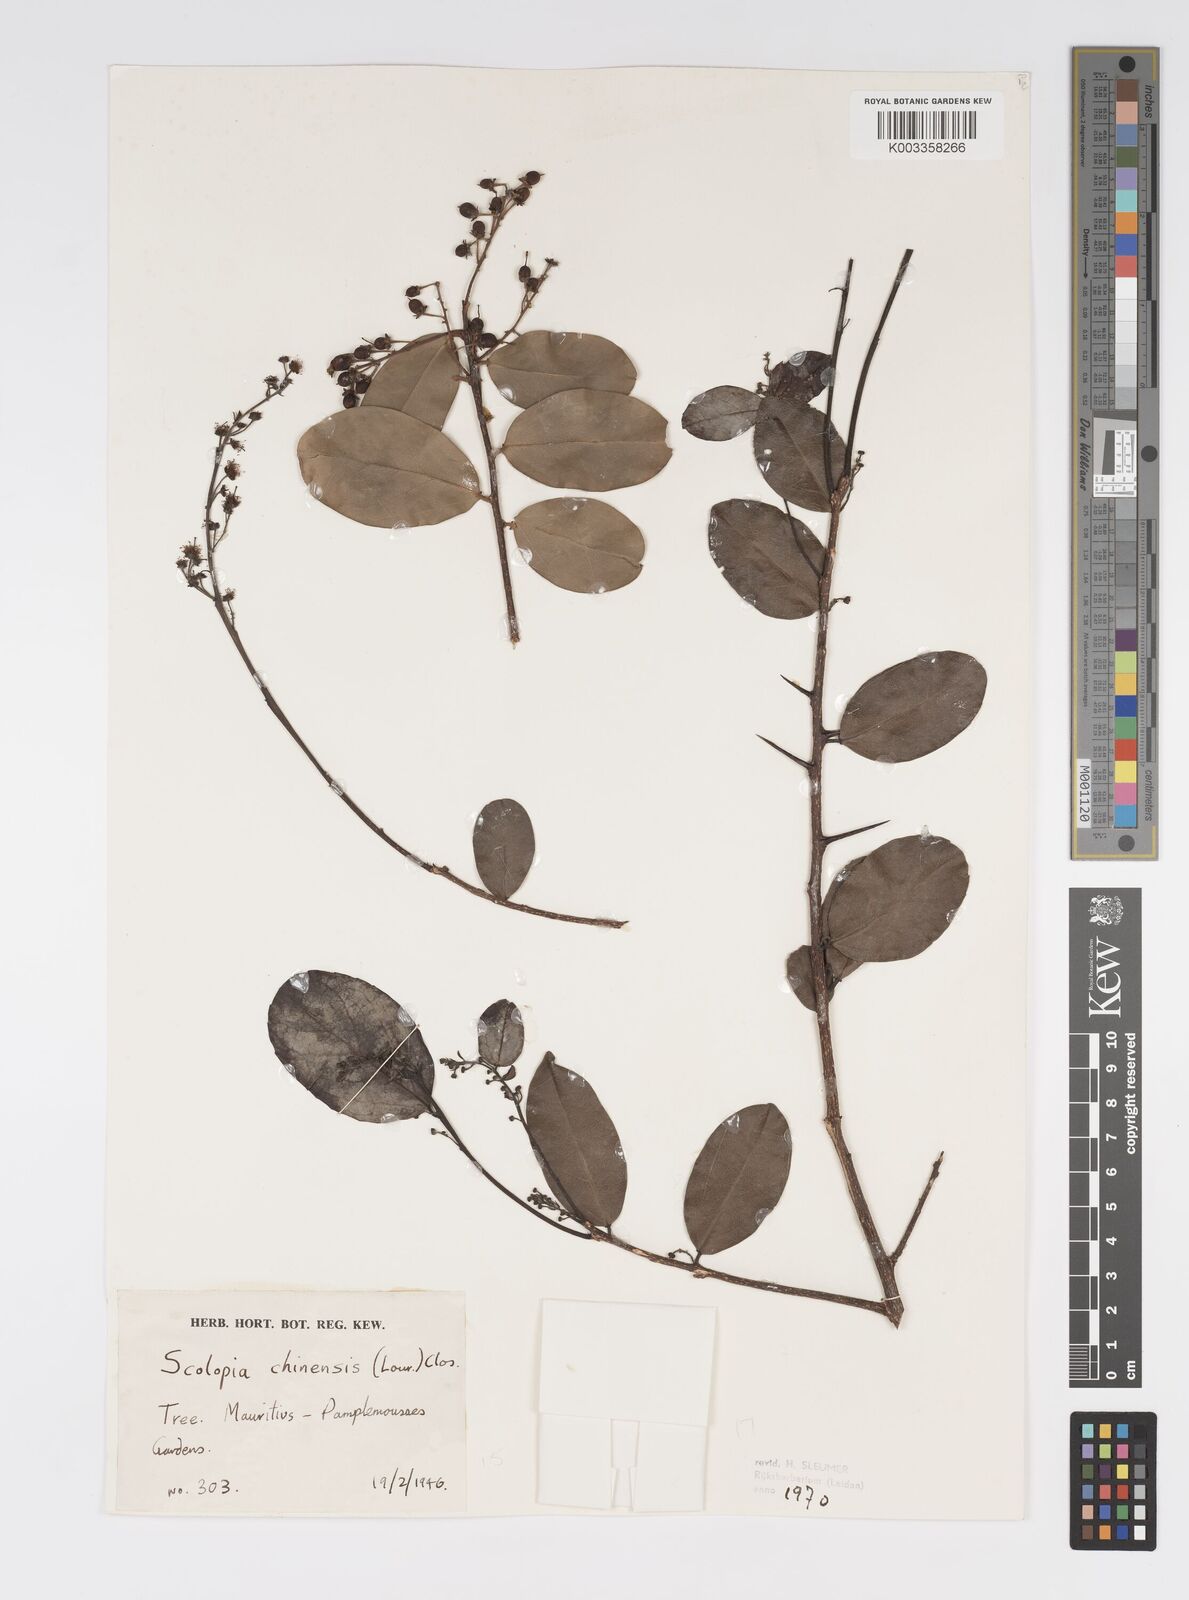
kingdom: Plantae
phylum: Tracheophyta
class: Magnoliopsida
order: Malpighiales
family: Salicaceae
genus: Scolopia
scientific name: Scolopia chinensis
